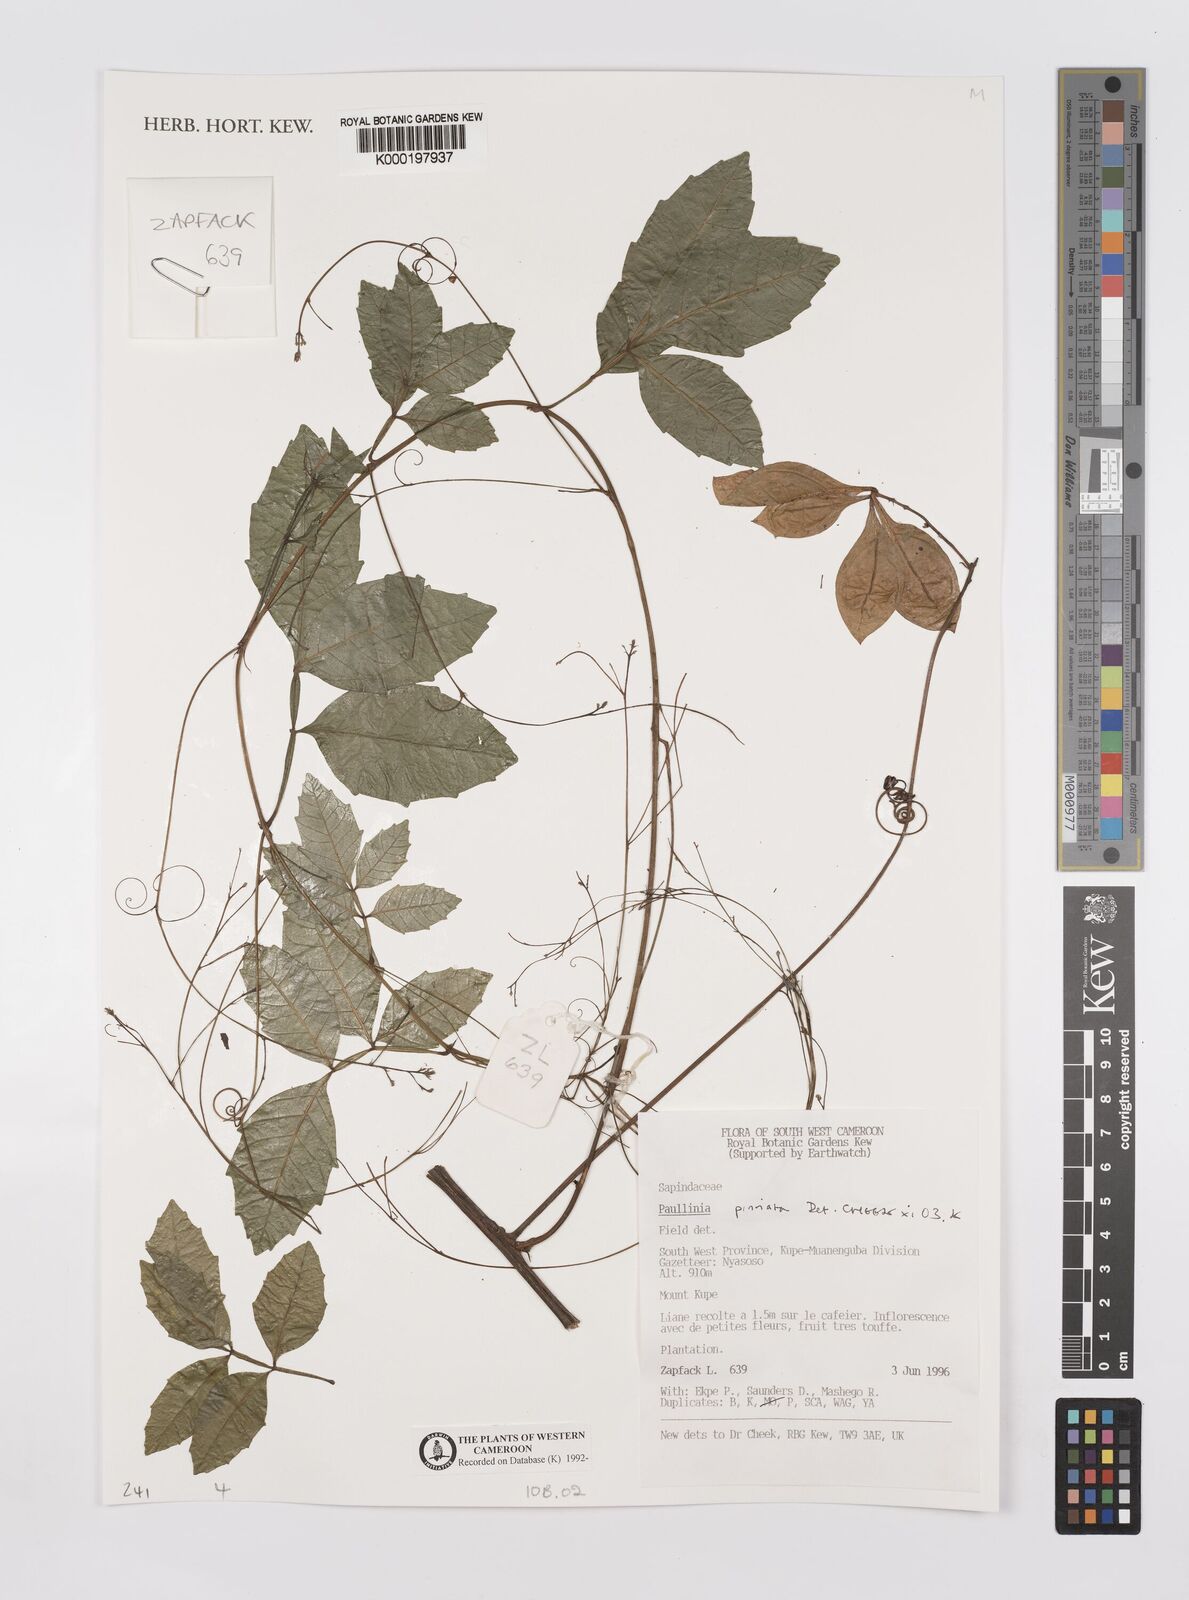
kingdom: Plantae
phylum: Tracheophyta
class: Magnoliopsida
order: Sapindales
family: Sapindaceae
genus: Paullinia
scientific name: Paullinia pinnata
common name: Barbasco
